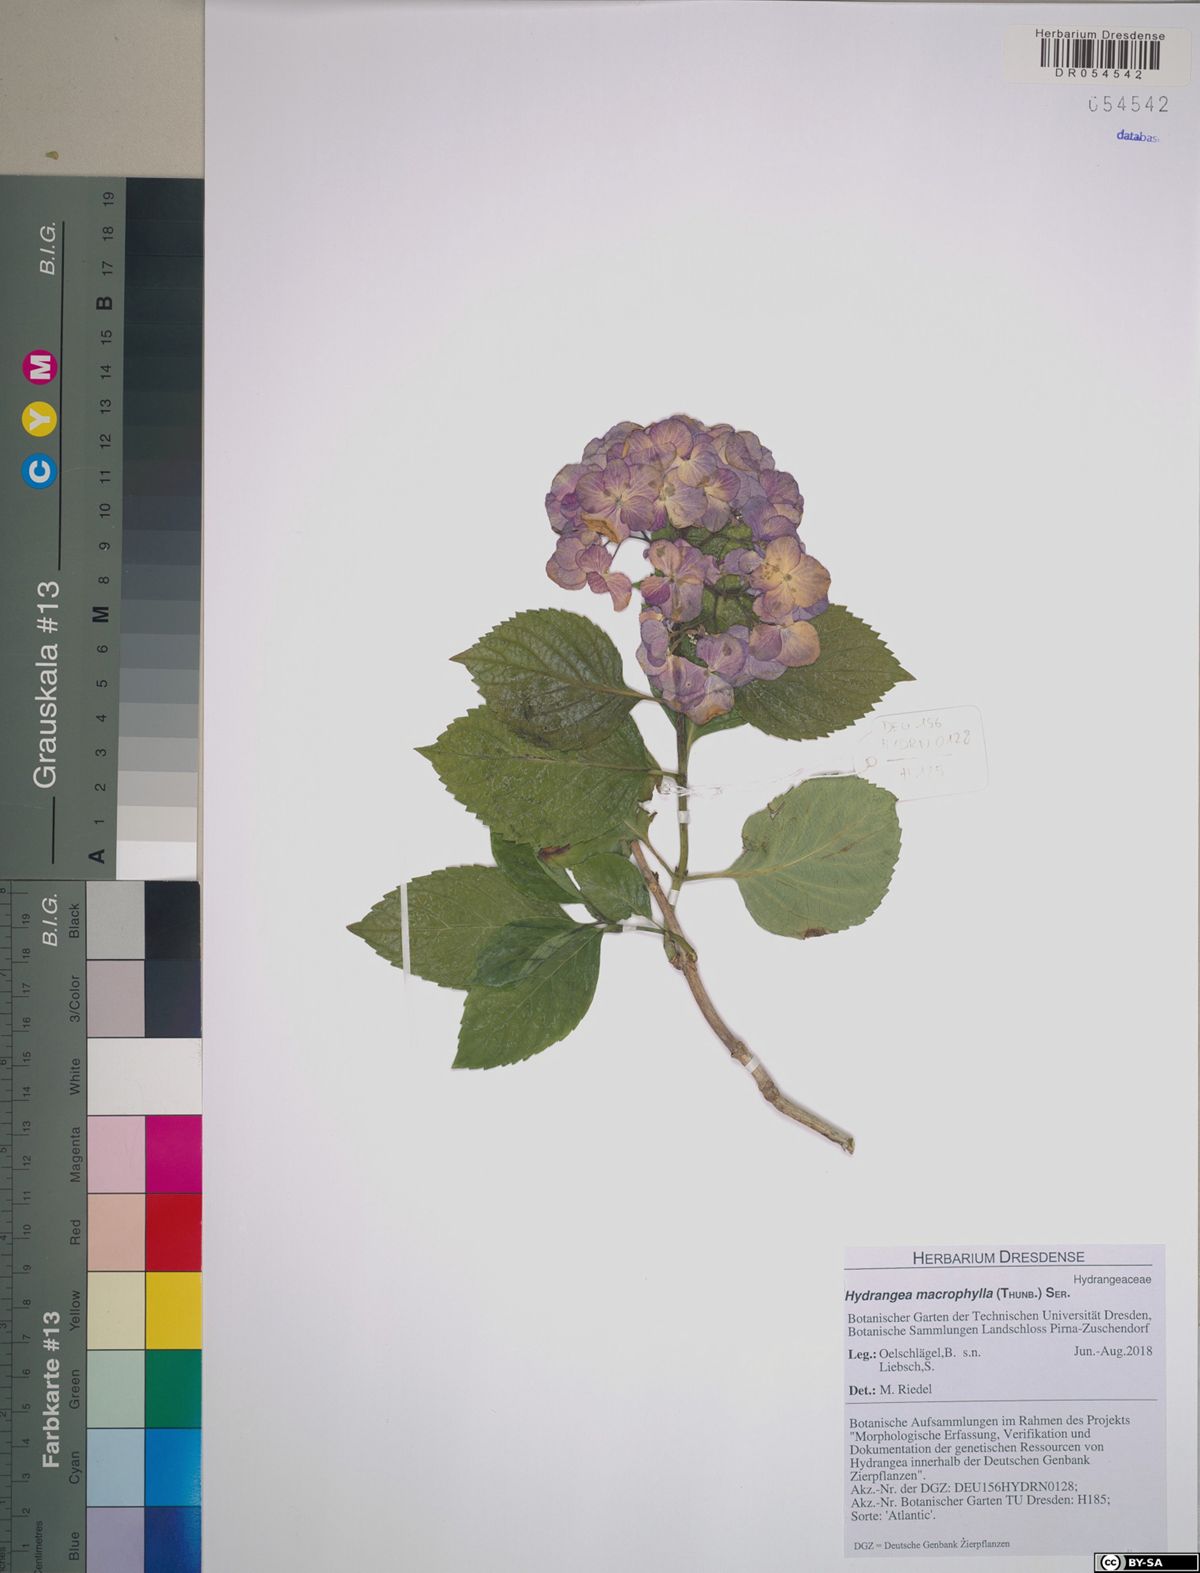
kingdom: Plantae
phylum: Tracheophyta
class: Magnoliopsida
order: Cornales
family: Hydrangeaceae
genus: Hydrangea
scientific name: Hydrangea macrophylla
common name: Hydrangea
